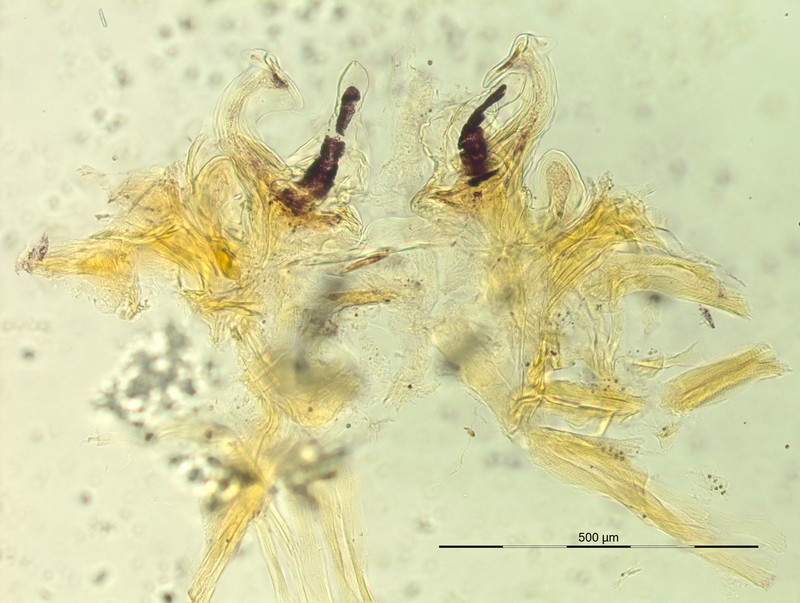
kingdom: Animalia
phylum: Arthropoda
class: Diplopoda
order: Chordeumatida
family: Craspedosomatidae
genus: Iulogona
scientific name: Iulogona tirolensis
